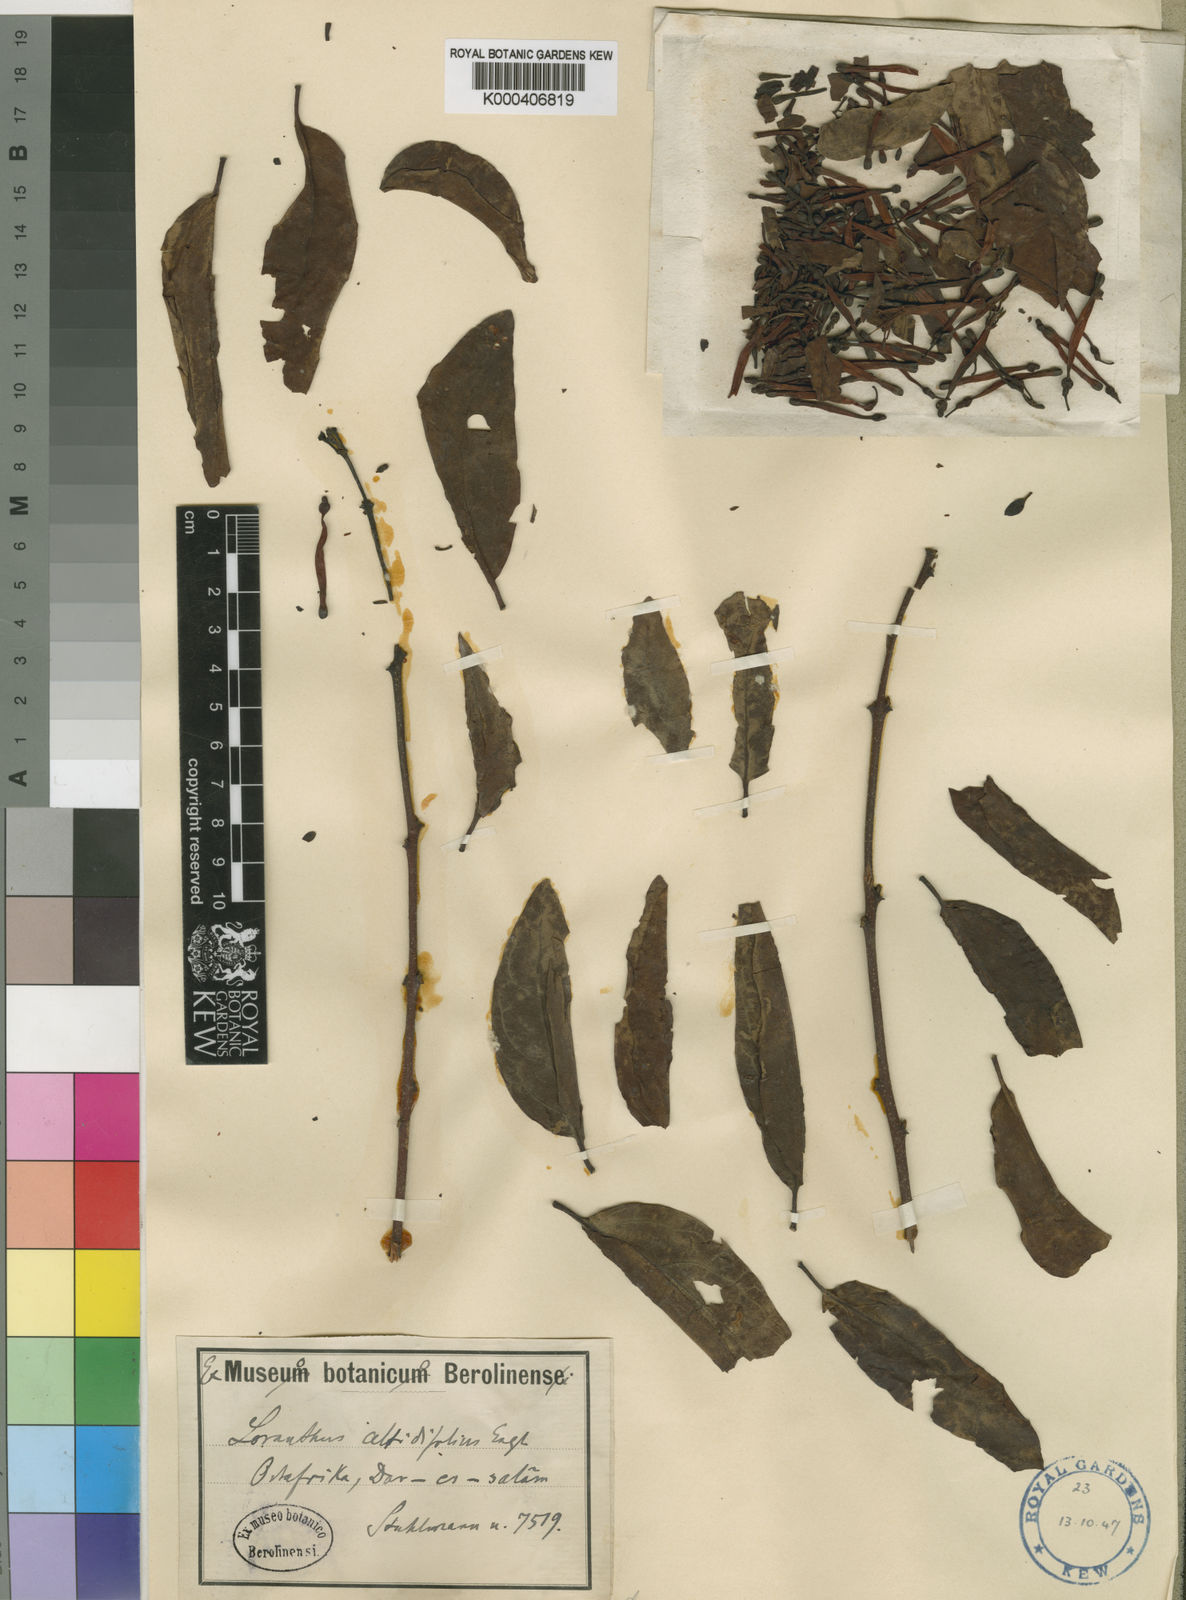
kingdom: Plantae
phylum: Tracheophyta
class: Magnoliopsida
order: Santalales
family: Loranthaceae
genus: Agelanthus
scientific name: Agelanthus heteromorphus
